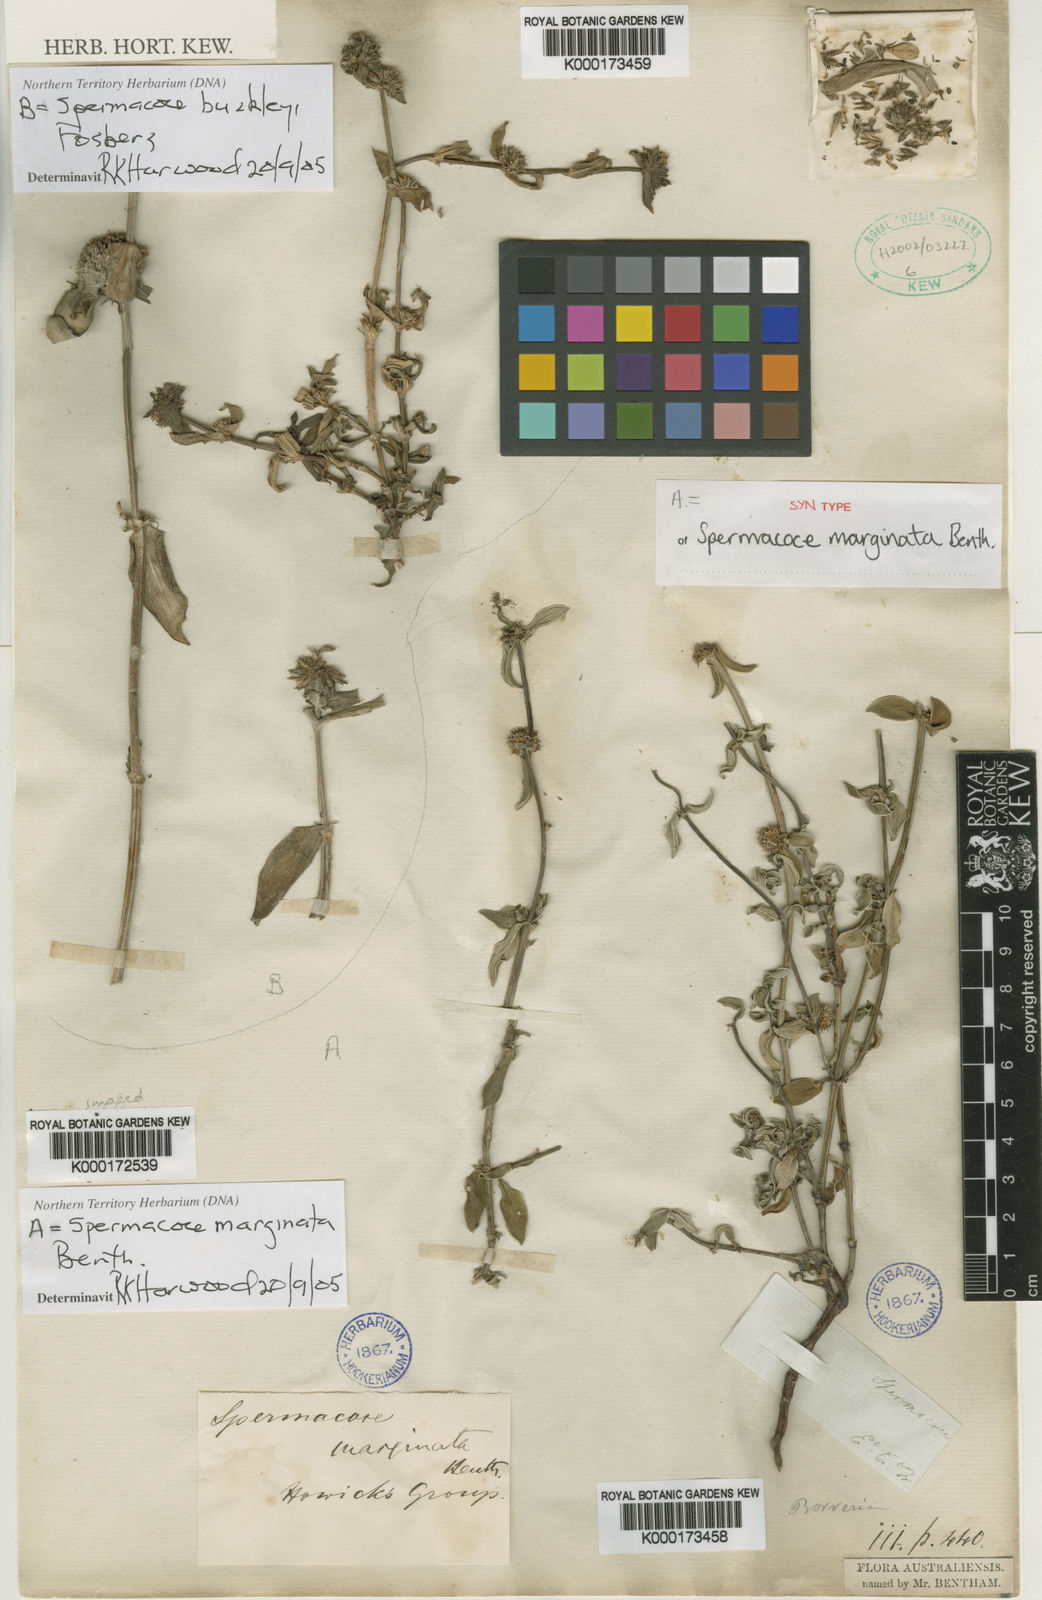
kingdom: Plantae
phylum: Tracheophyta
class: Magnoliopsida
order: Gentianales
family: Rubiaceae
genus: Spermacoce
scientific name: Spermacoce buckleyi
